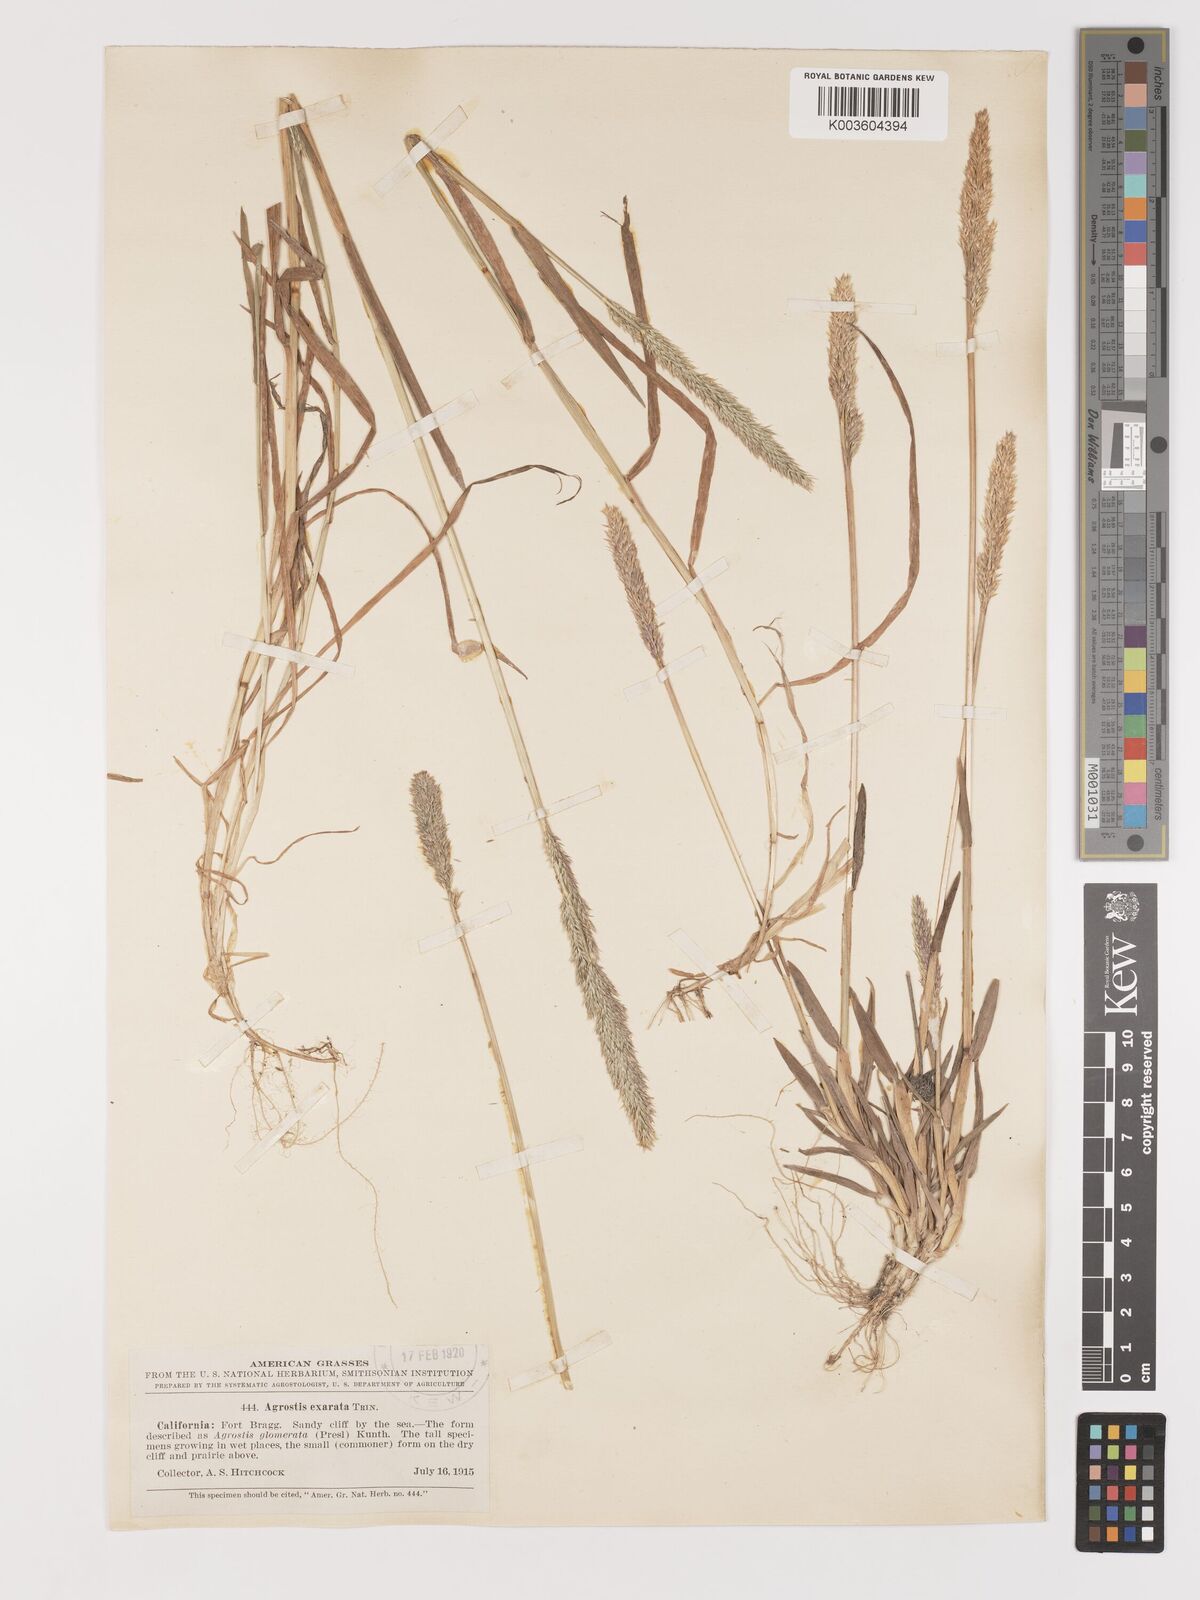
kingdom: Plantae
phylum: Tracheophyta
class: Liliopsida
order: Poales
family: Poaceae
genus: Agrostis
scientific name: Agrostis exarata
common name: Spike bent
